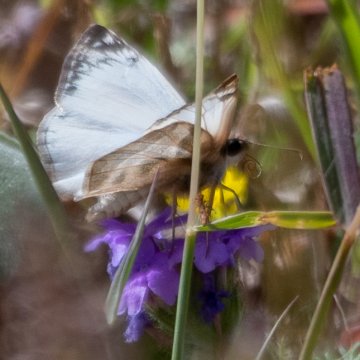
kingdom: Animalia
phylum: Arthropoda
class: Insecta
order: Lepidoptera
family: Hesperiidae
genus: Heliopetes
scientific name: Heliopetes laviana
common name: Laviana White-Skipper
